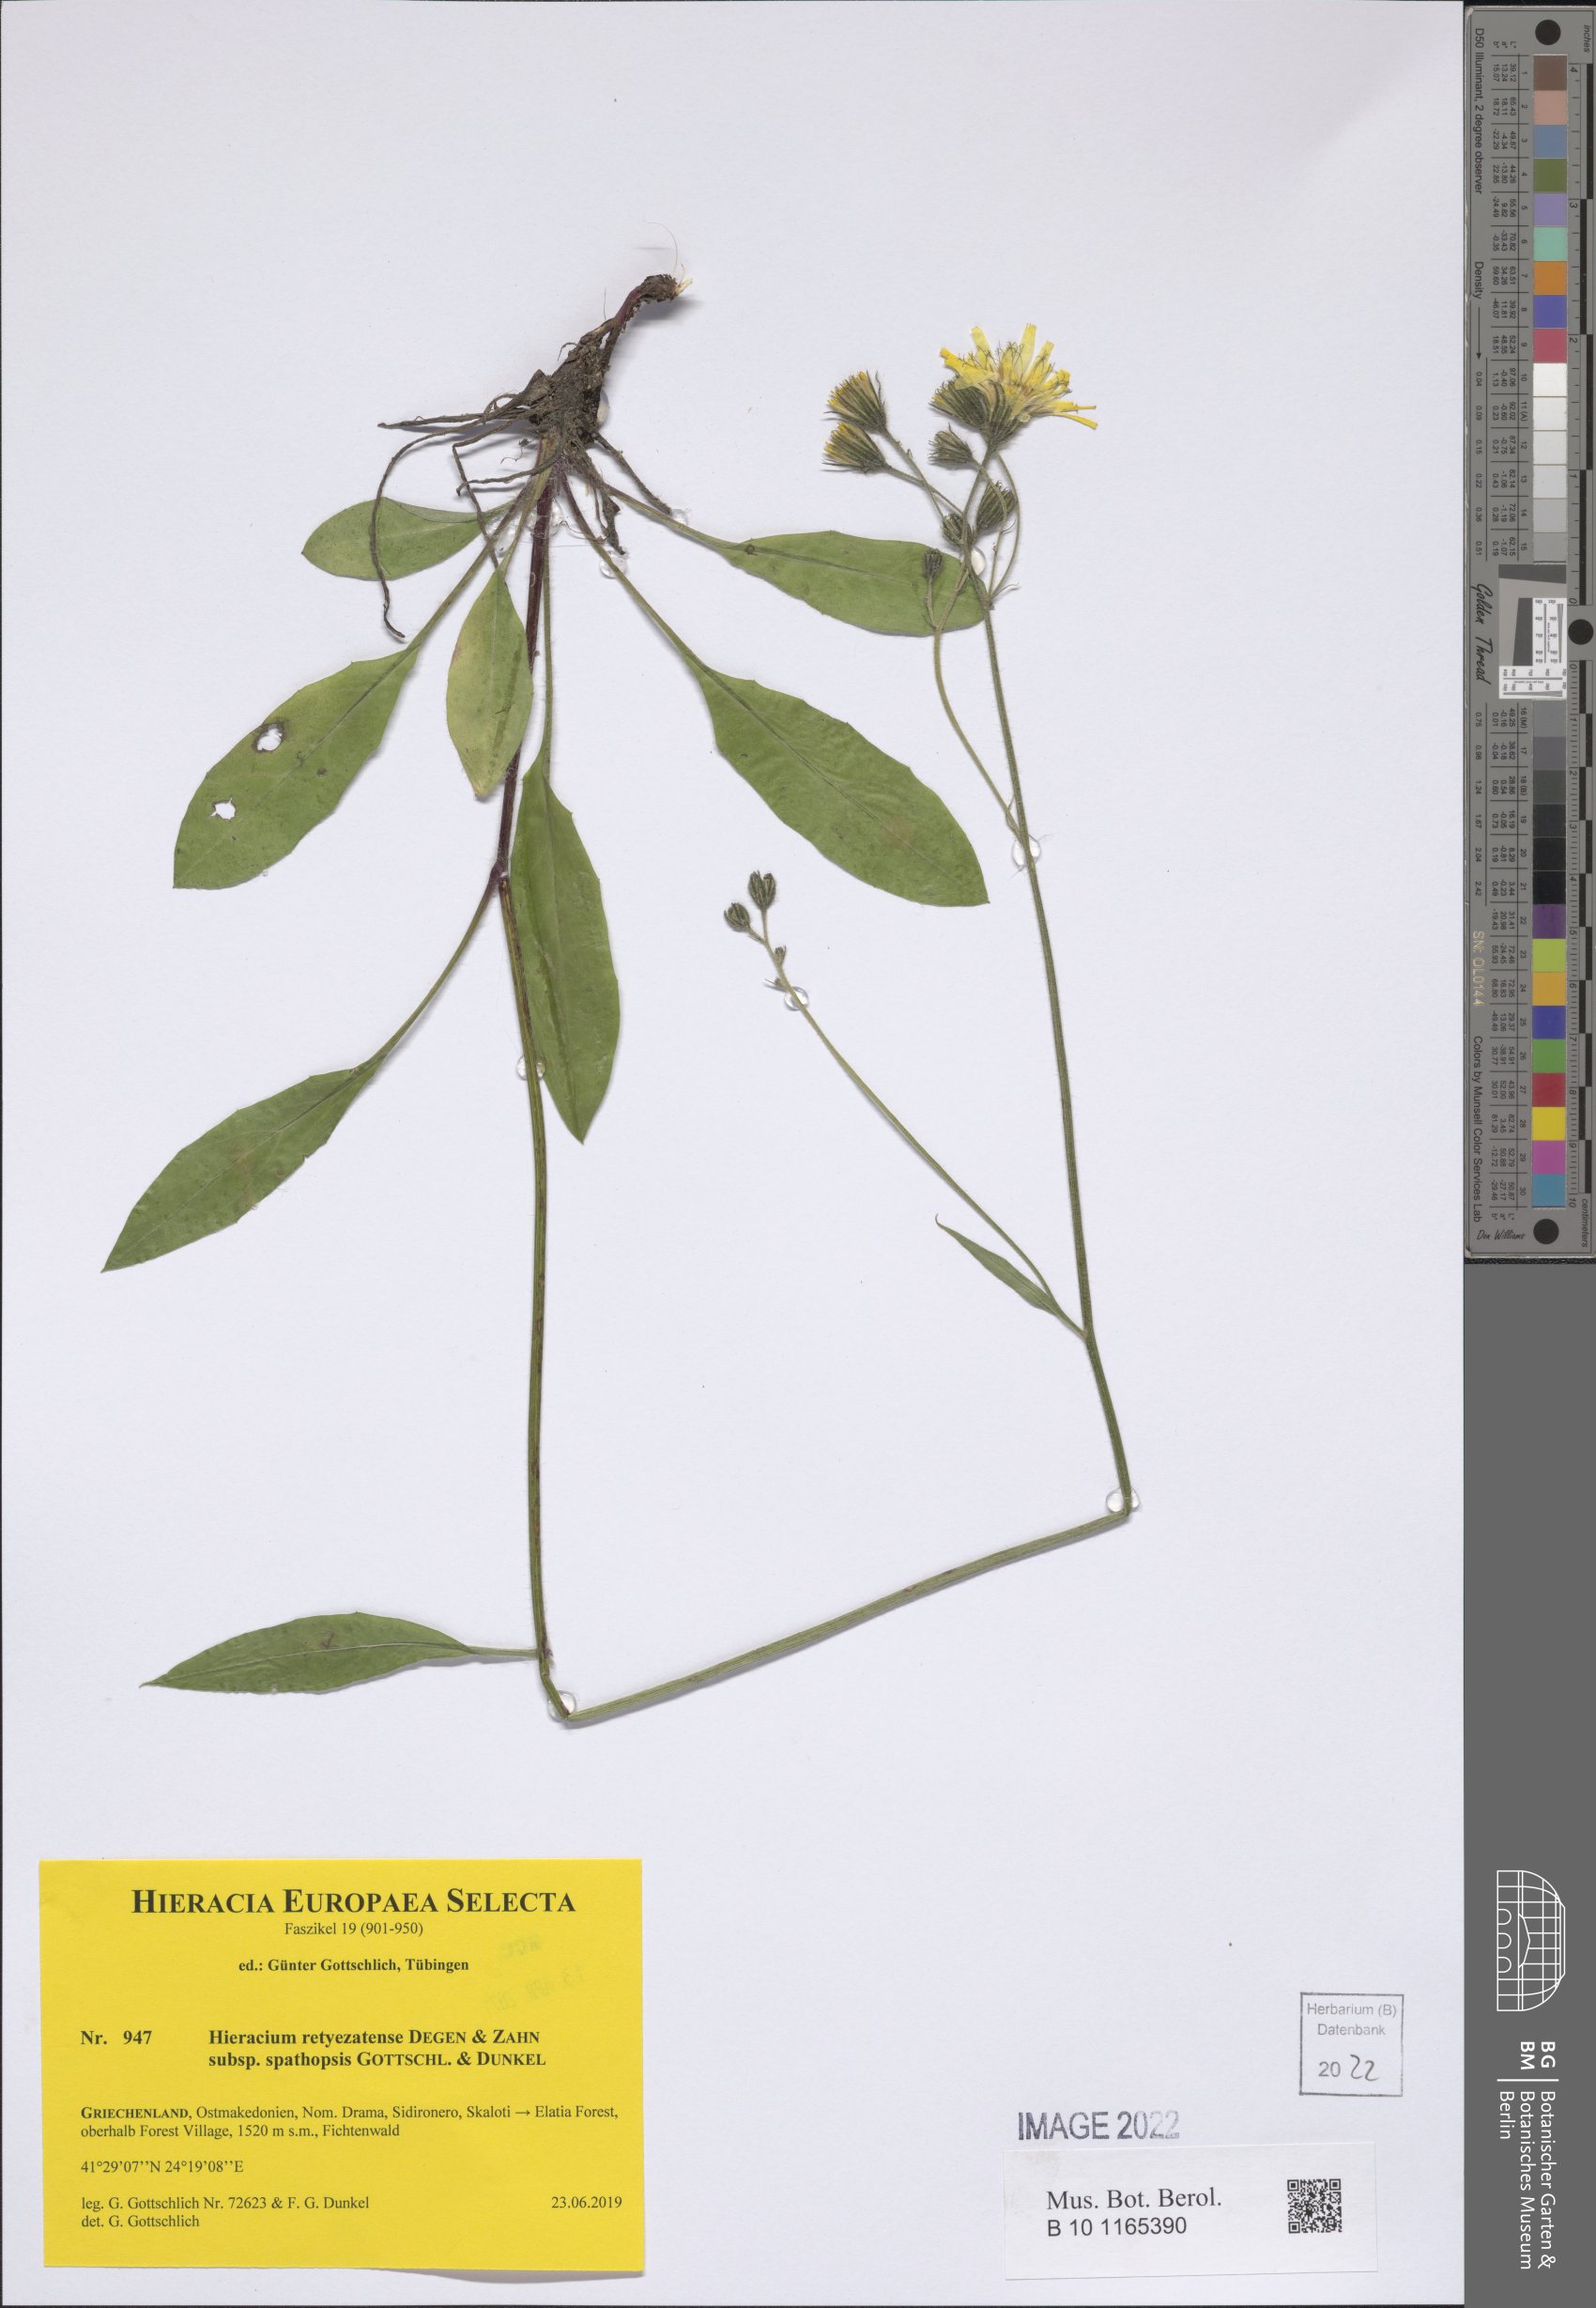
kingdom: Plantae
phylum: Tracheophyta
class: Magnoliopsida
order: Asterales
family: Asteraceae
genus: Hieracium
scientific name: Hieracium retyezatense
